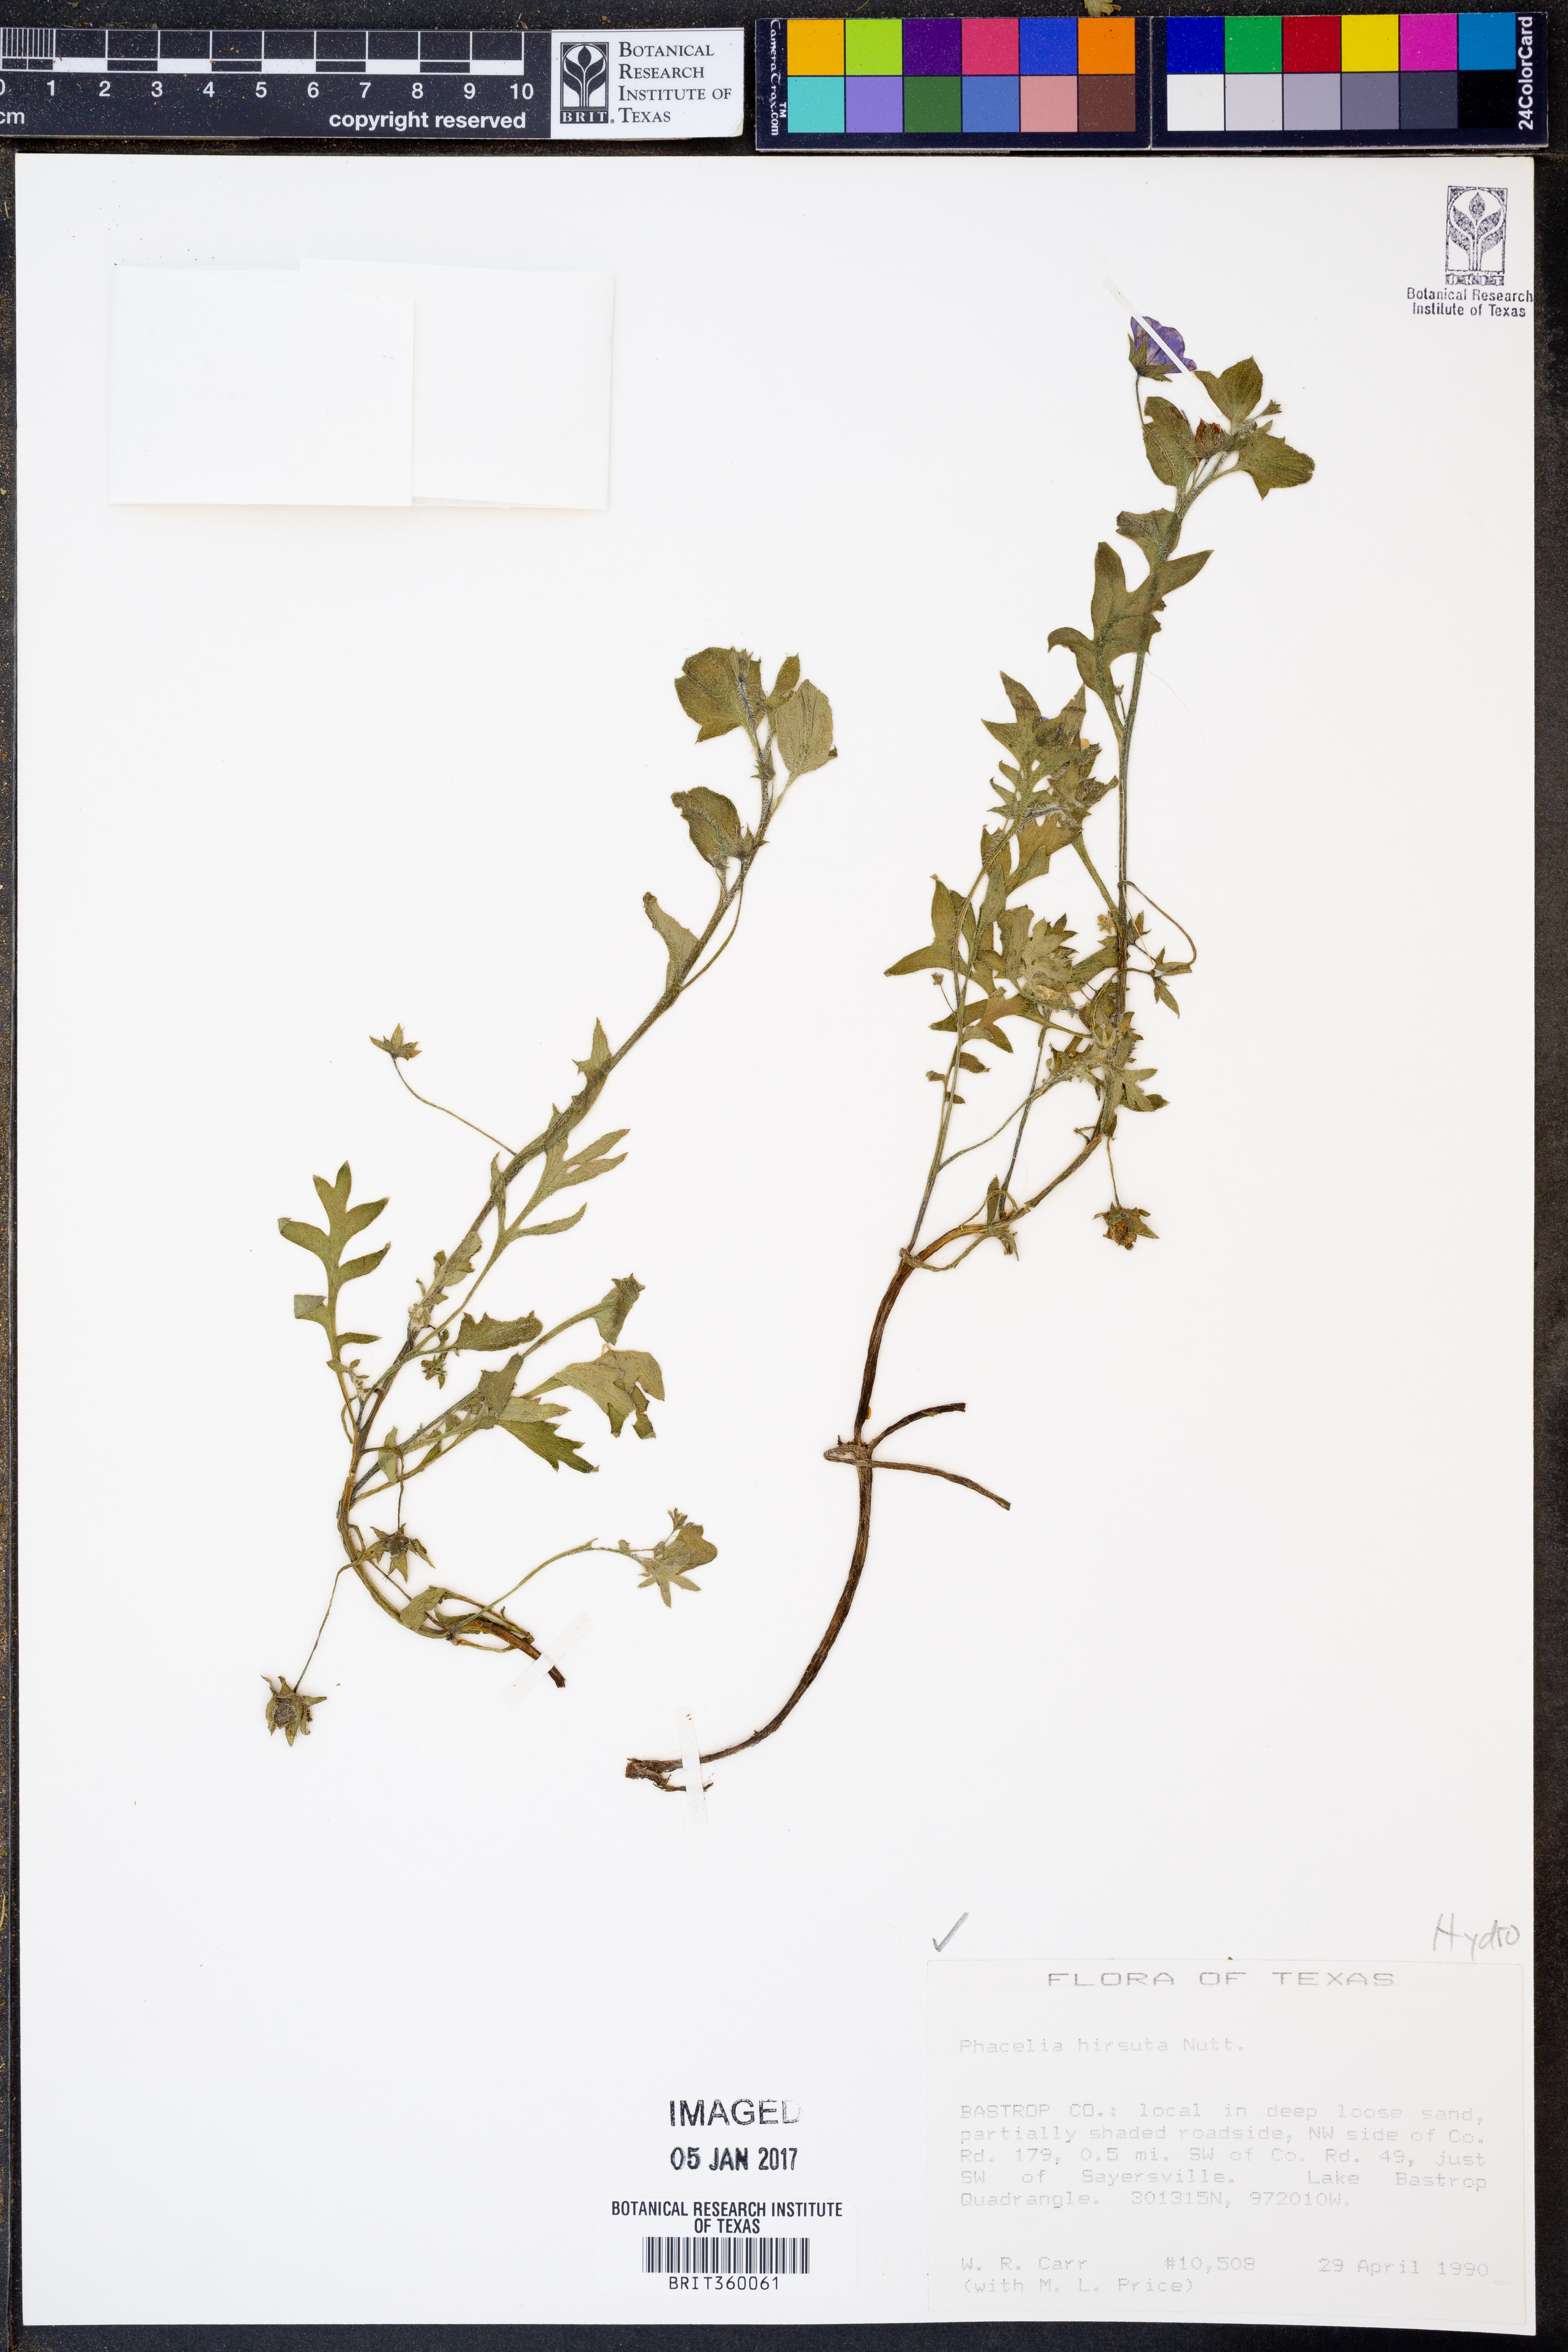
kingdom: Plantae
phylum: Tracheophyta
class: Magnoliopsida
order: Boraginales
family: Hydrophyllaceae
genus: Phacelia
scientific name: Phacelia hirsuta
